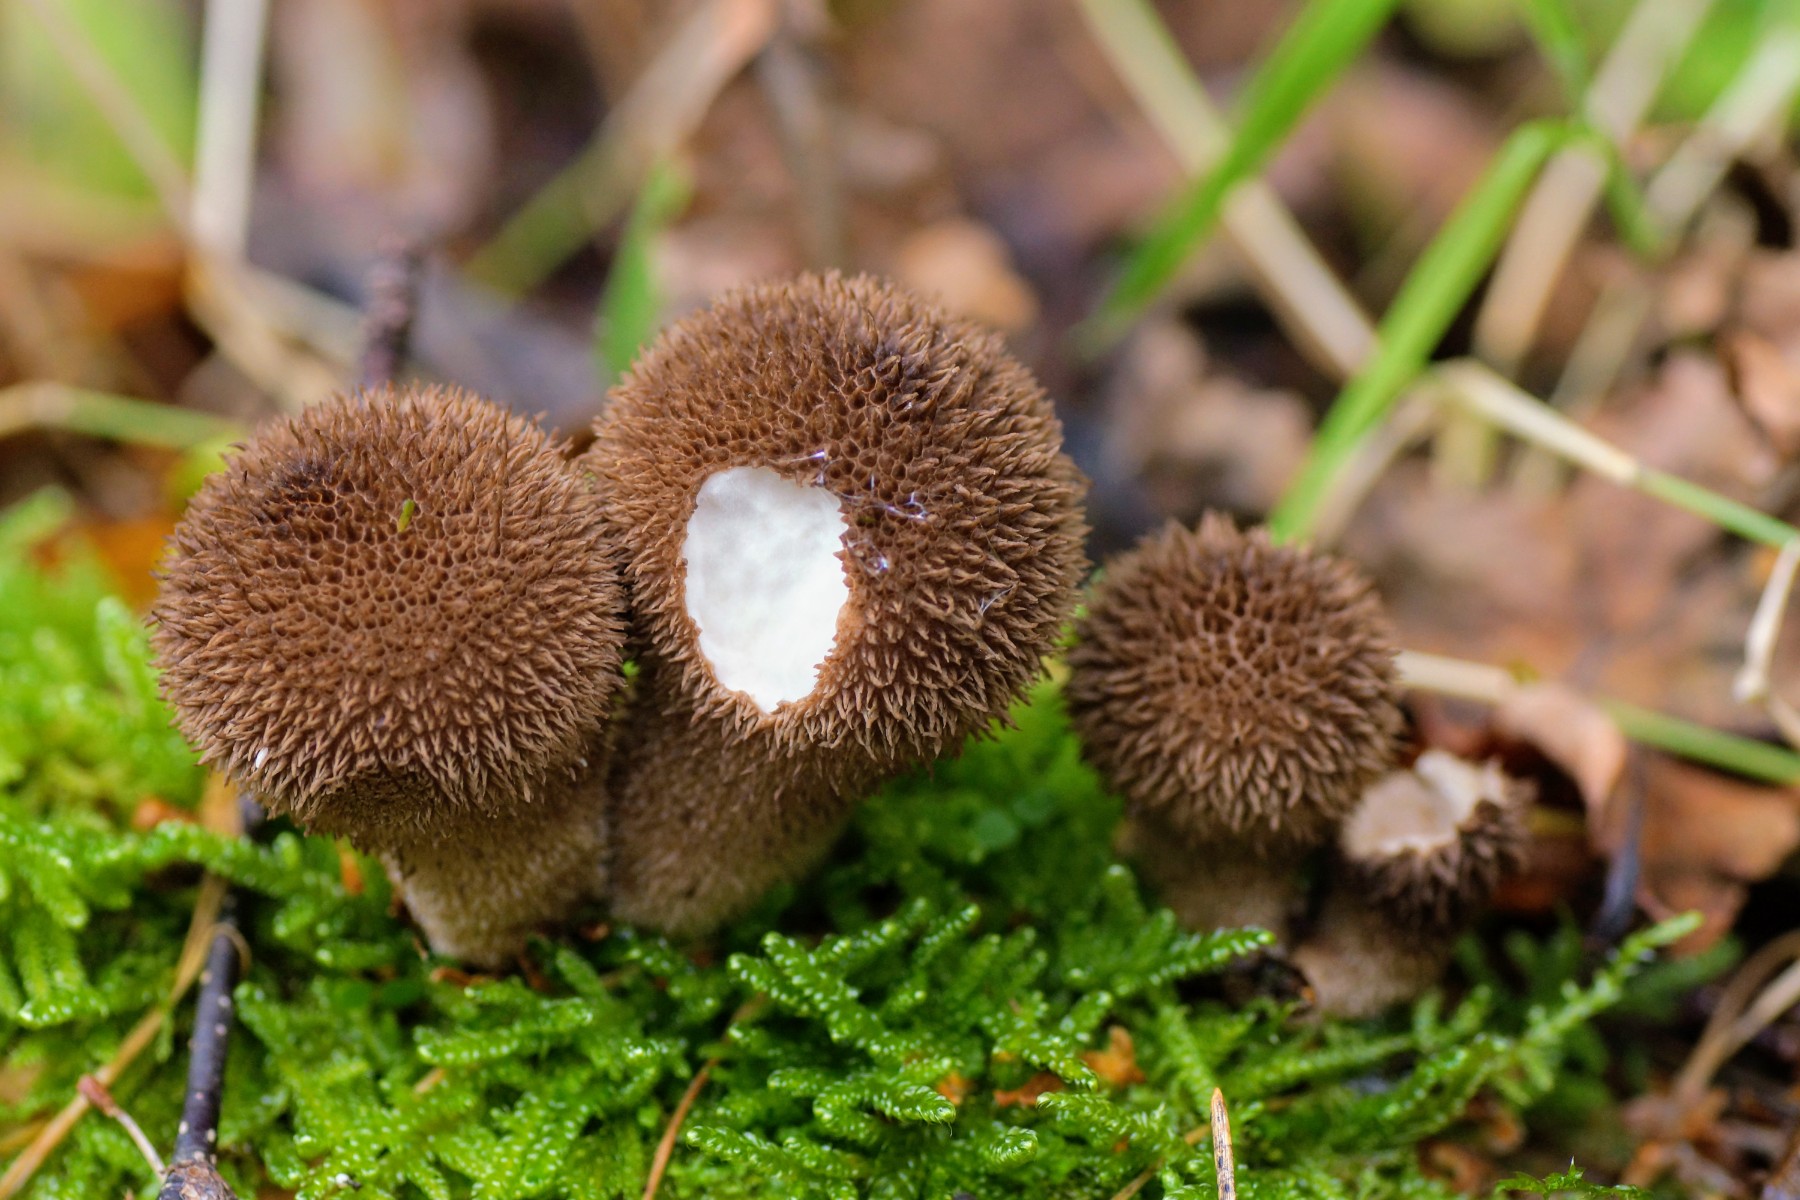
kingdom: Fungi
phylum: Basidiomycota
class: Agaricomycetes
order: Agaricales
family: Lycoperdaceae
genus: Lycoperdon
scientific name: Lycoperdon nigrescens
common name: sortagtig støvbold
